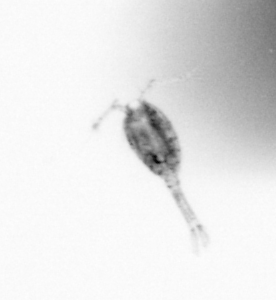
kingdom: Animalia
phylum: Arthropoda
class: Copepoda
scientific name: Copepoda
